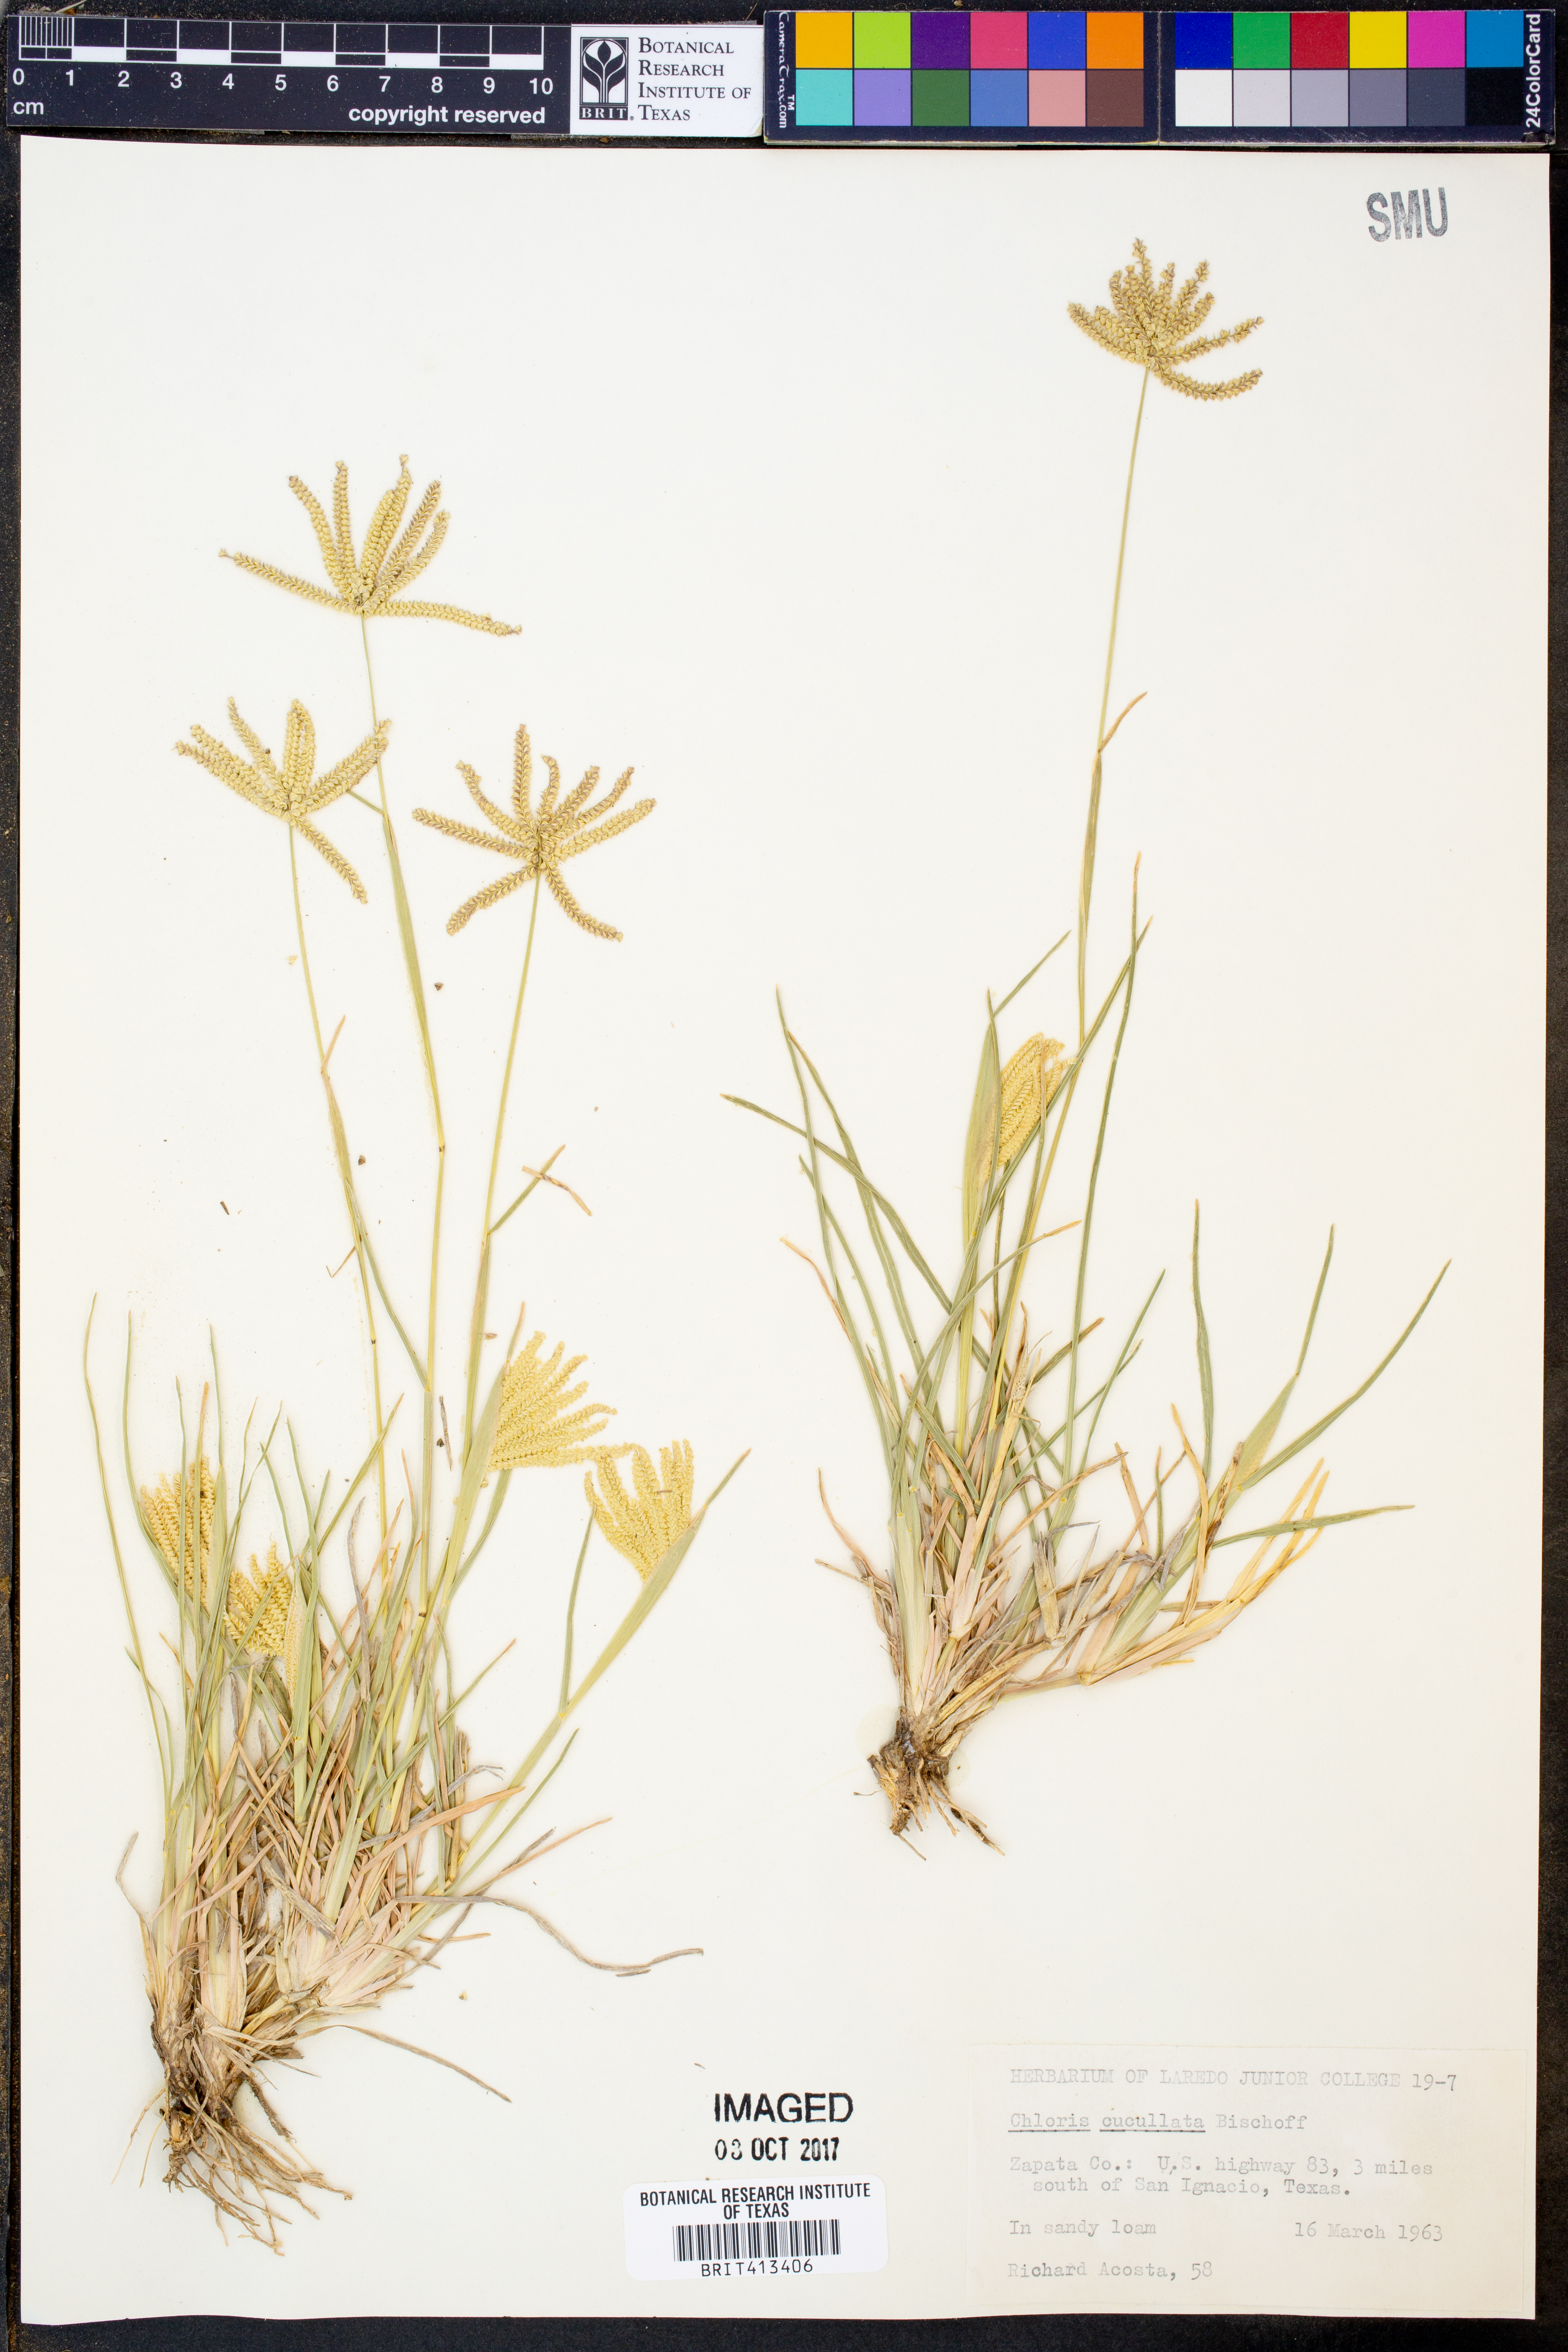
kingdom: Plantae
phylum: Tracheophyta
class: Liliopsida
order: Poales
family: Poaceae
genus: Chloris
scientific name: Chloris cucullata
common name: Hooded windmill grass
